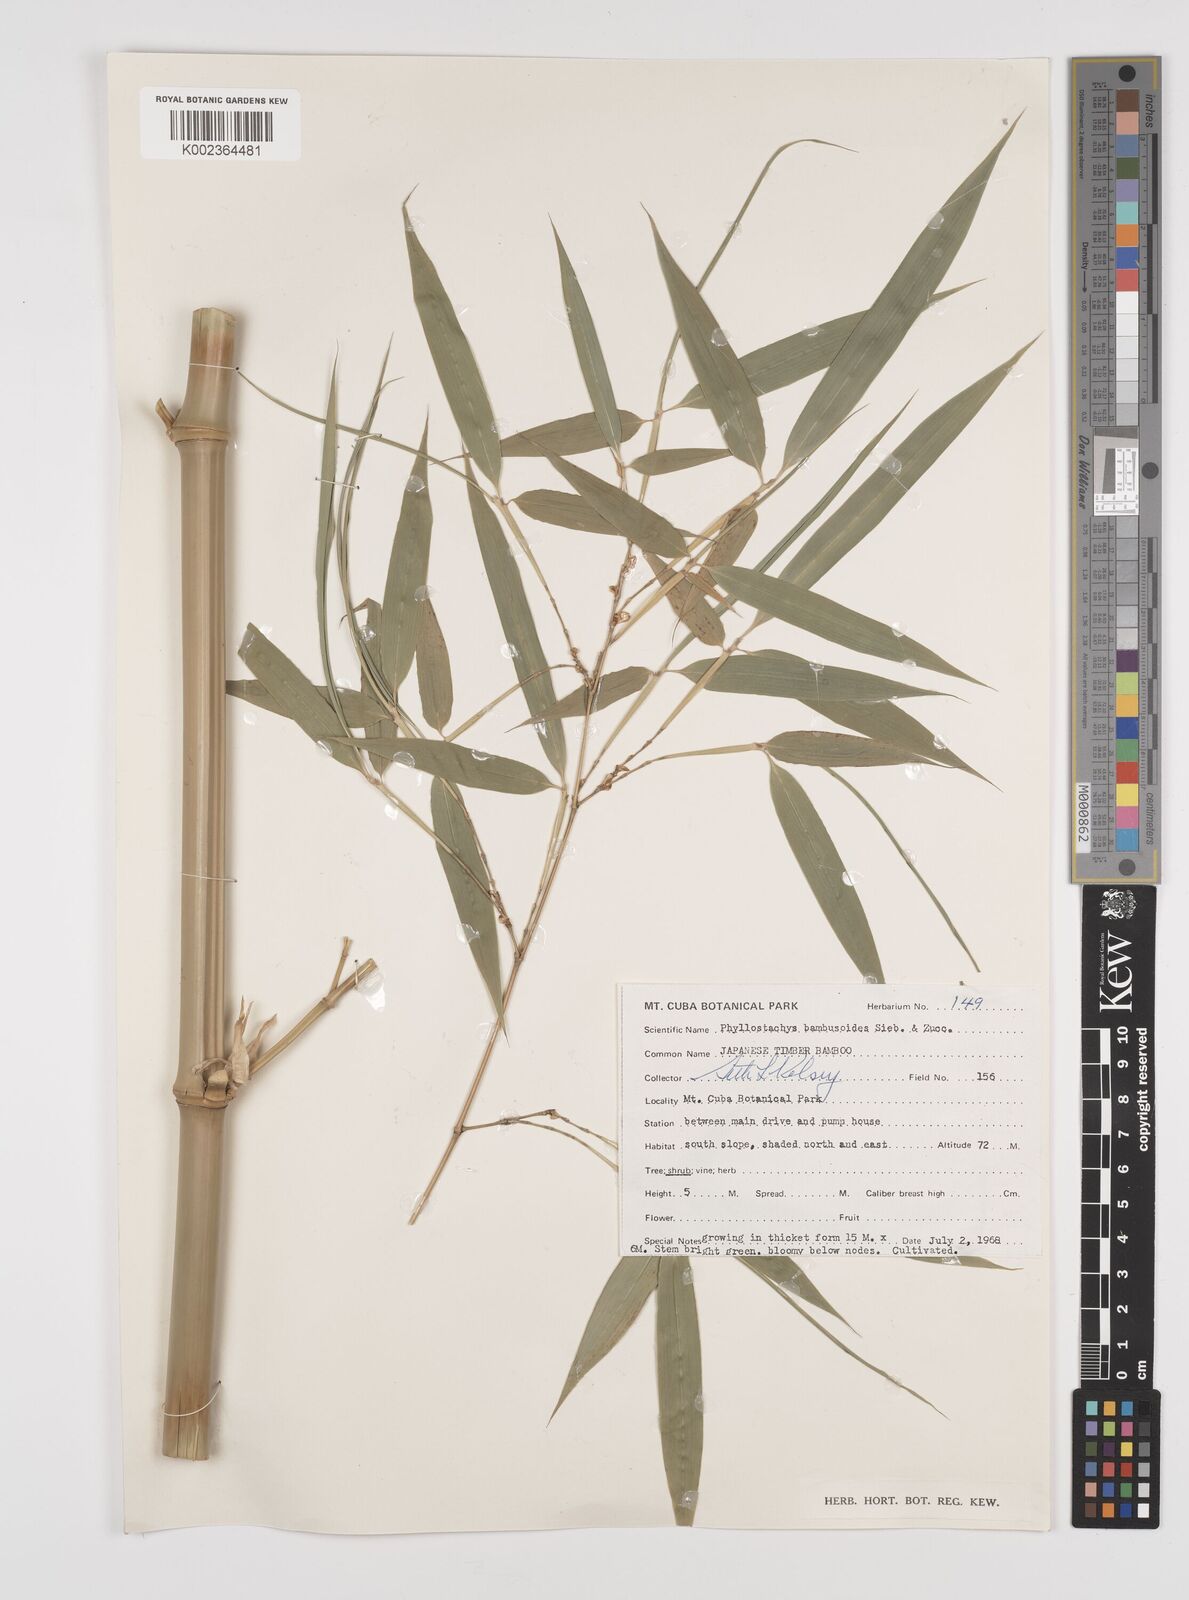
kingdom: Plantae
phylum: Tracheophyta
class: Liliopsida
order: Poales
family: Poaceae
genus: Phyllostachys
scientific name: Phyllostachys reticulata
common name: Bamboo
